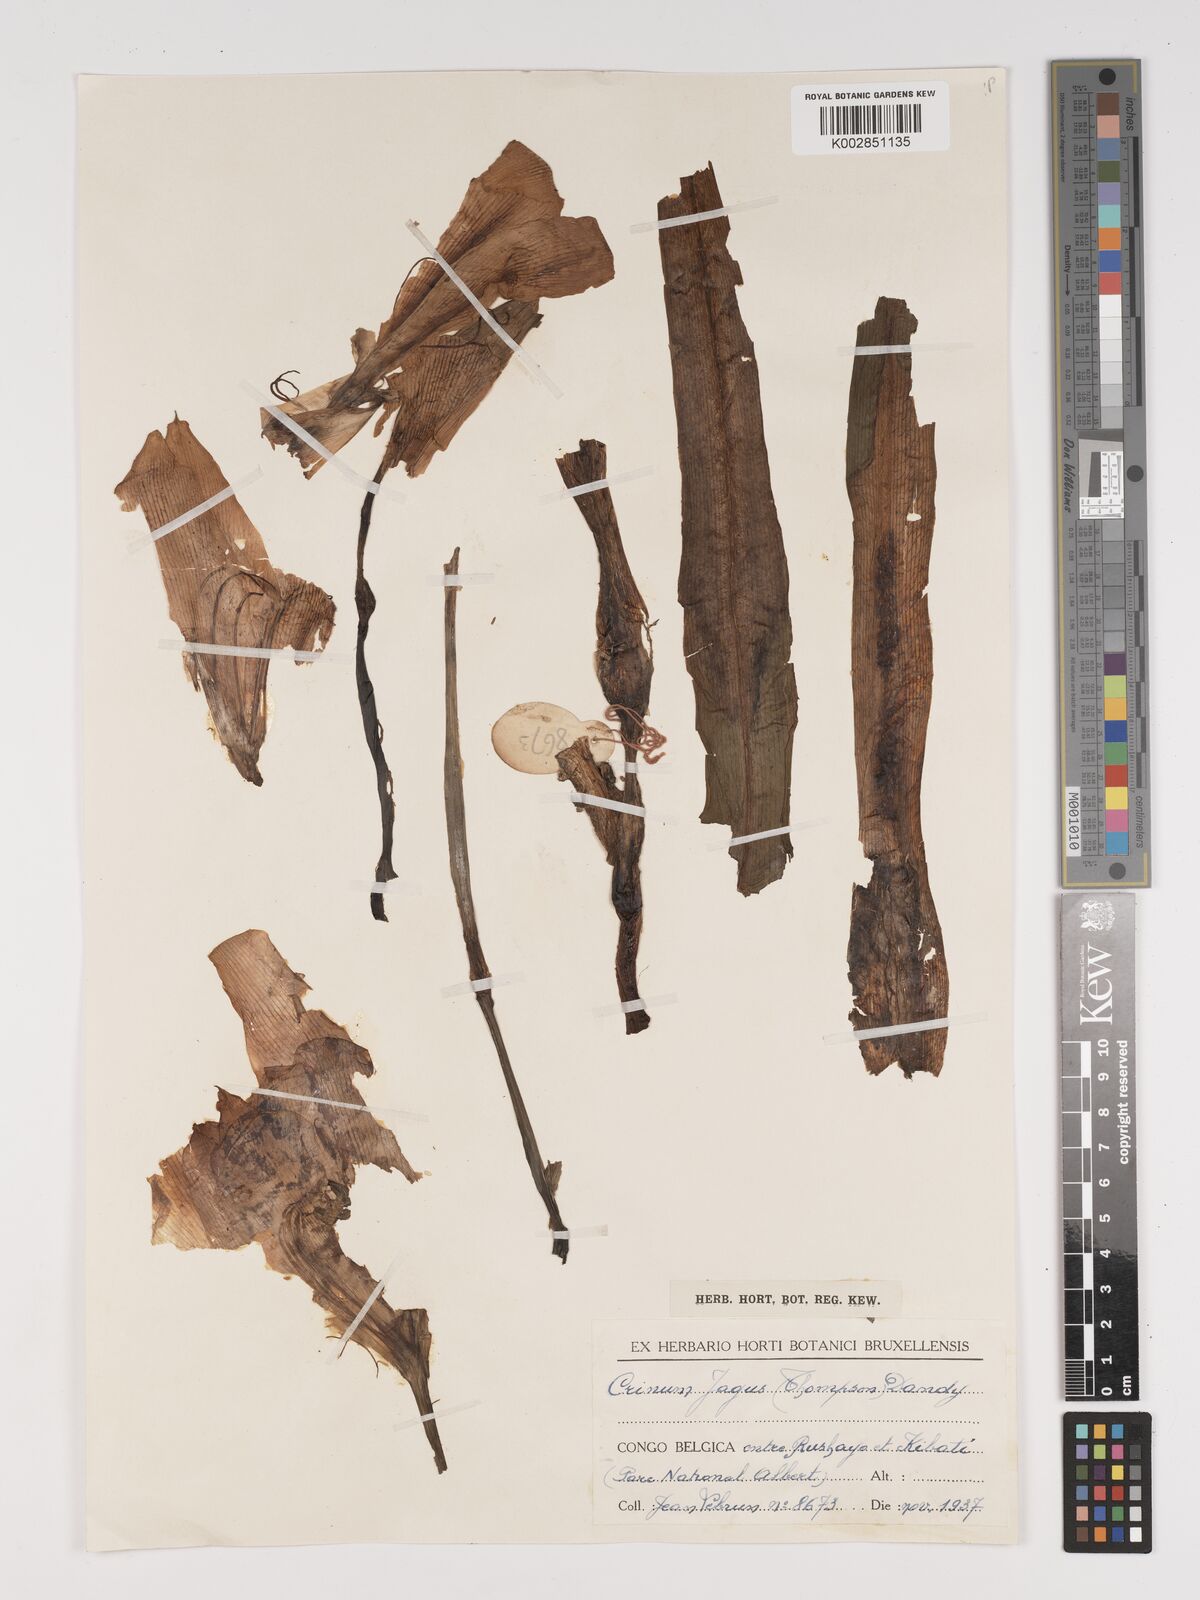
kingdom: Plantae
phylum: Tracheophyta
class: Liliopsida
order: Asparagales
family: Amaryllidaceae
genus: Crinum
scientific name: Crinum jagus
